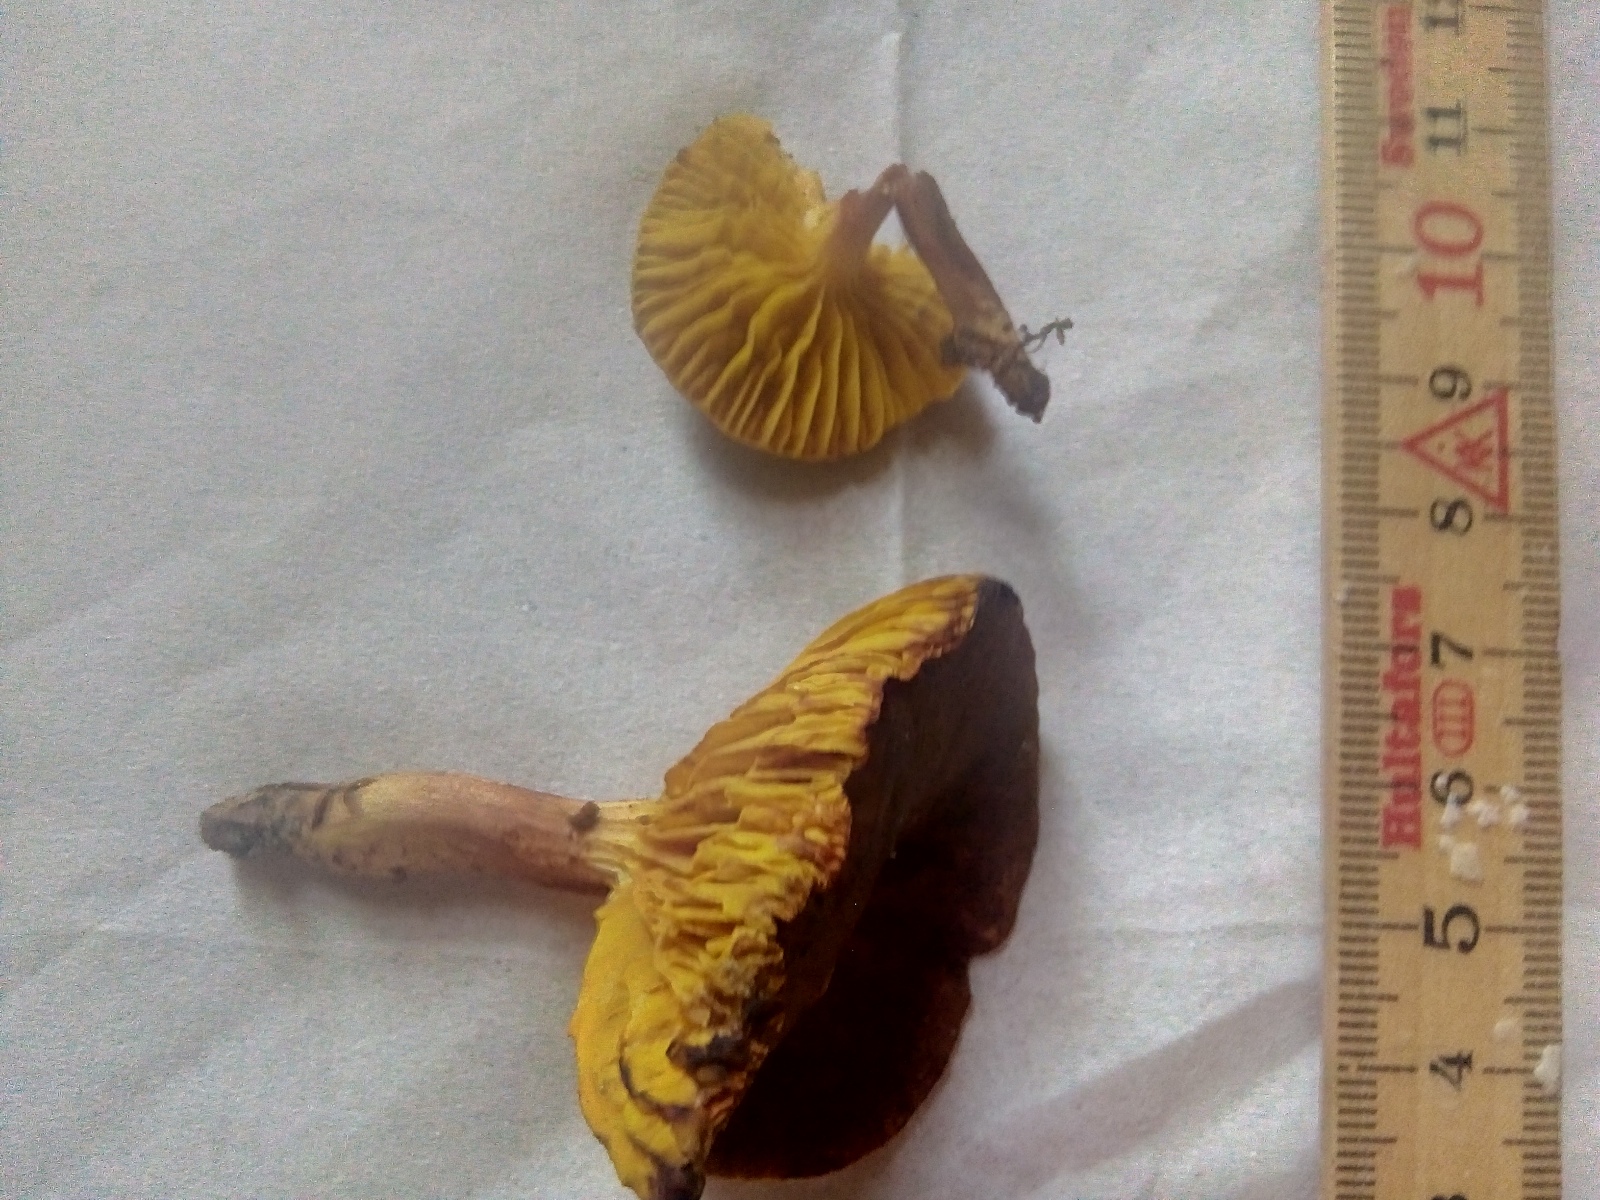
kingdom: Fungi
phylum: Basidiomycota
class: Agaricomycetes
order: Boletales
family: Boletaceae
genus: Phylloporus
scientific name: Phylloporus pelletieri
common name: lamelrørhat
